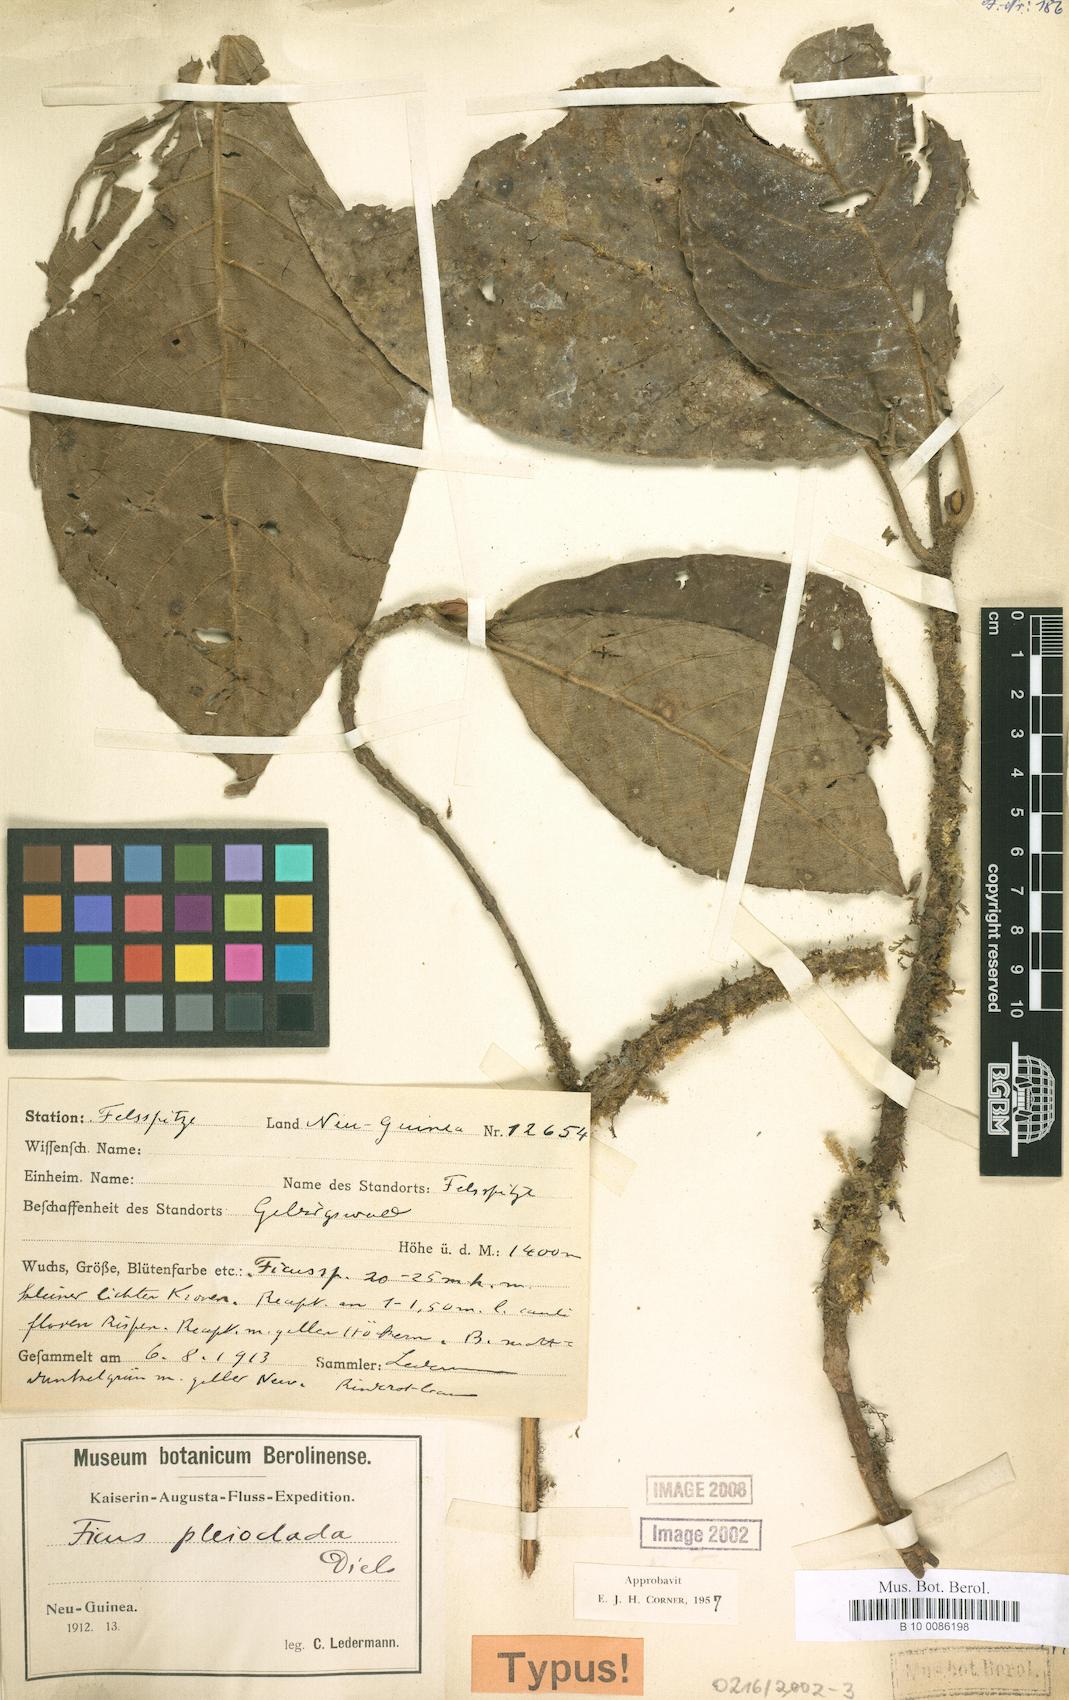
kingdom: Plantae
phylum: Tracheophyta
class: Magnoliopsida
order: Rosales
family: Moraceae
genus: Ficus
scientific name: Ficus trichocerasa
